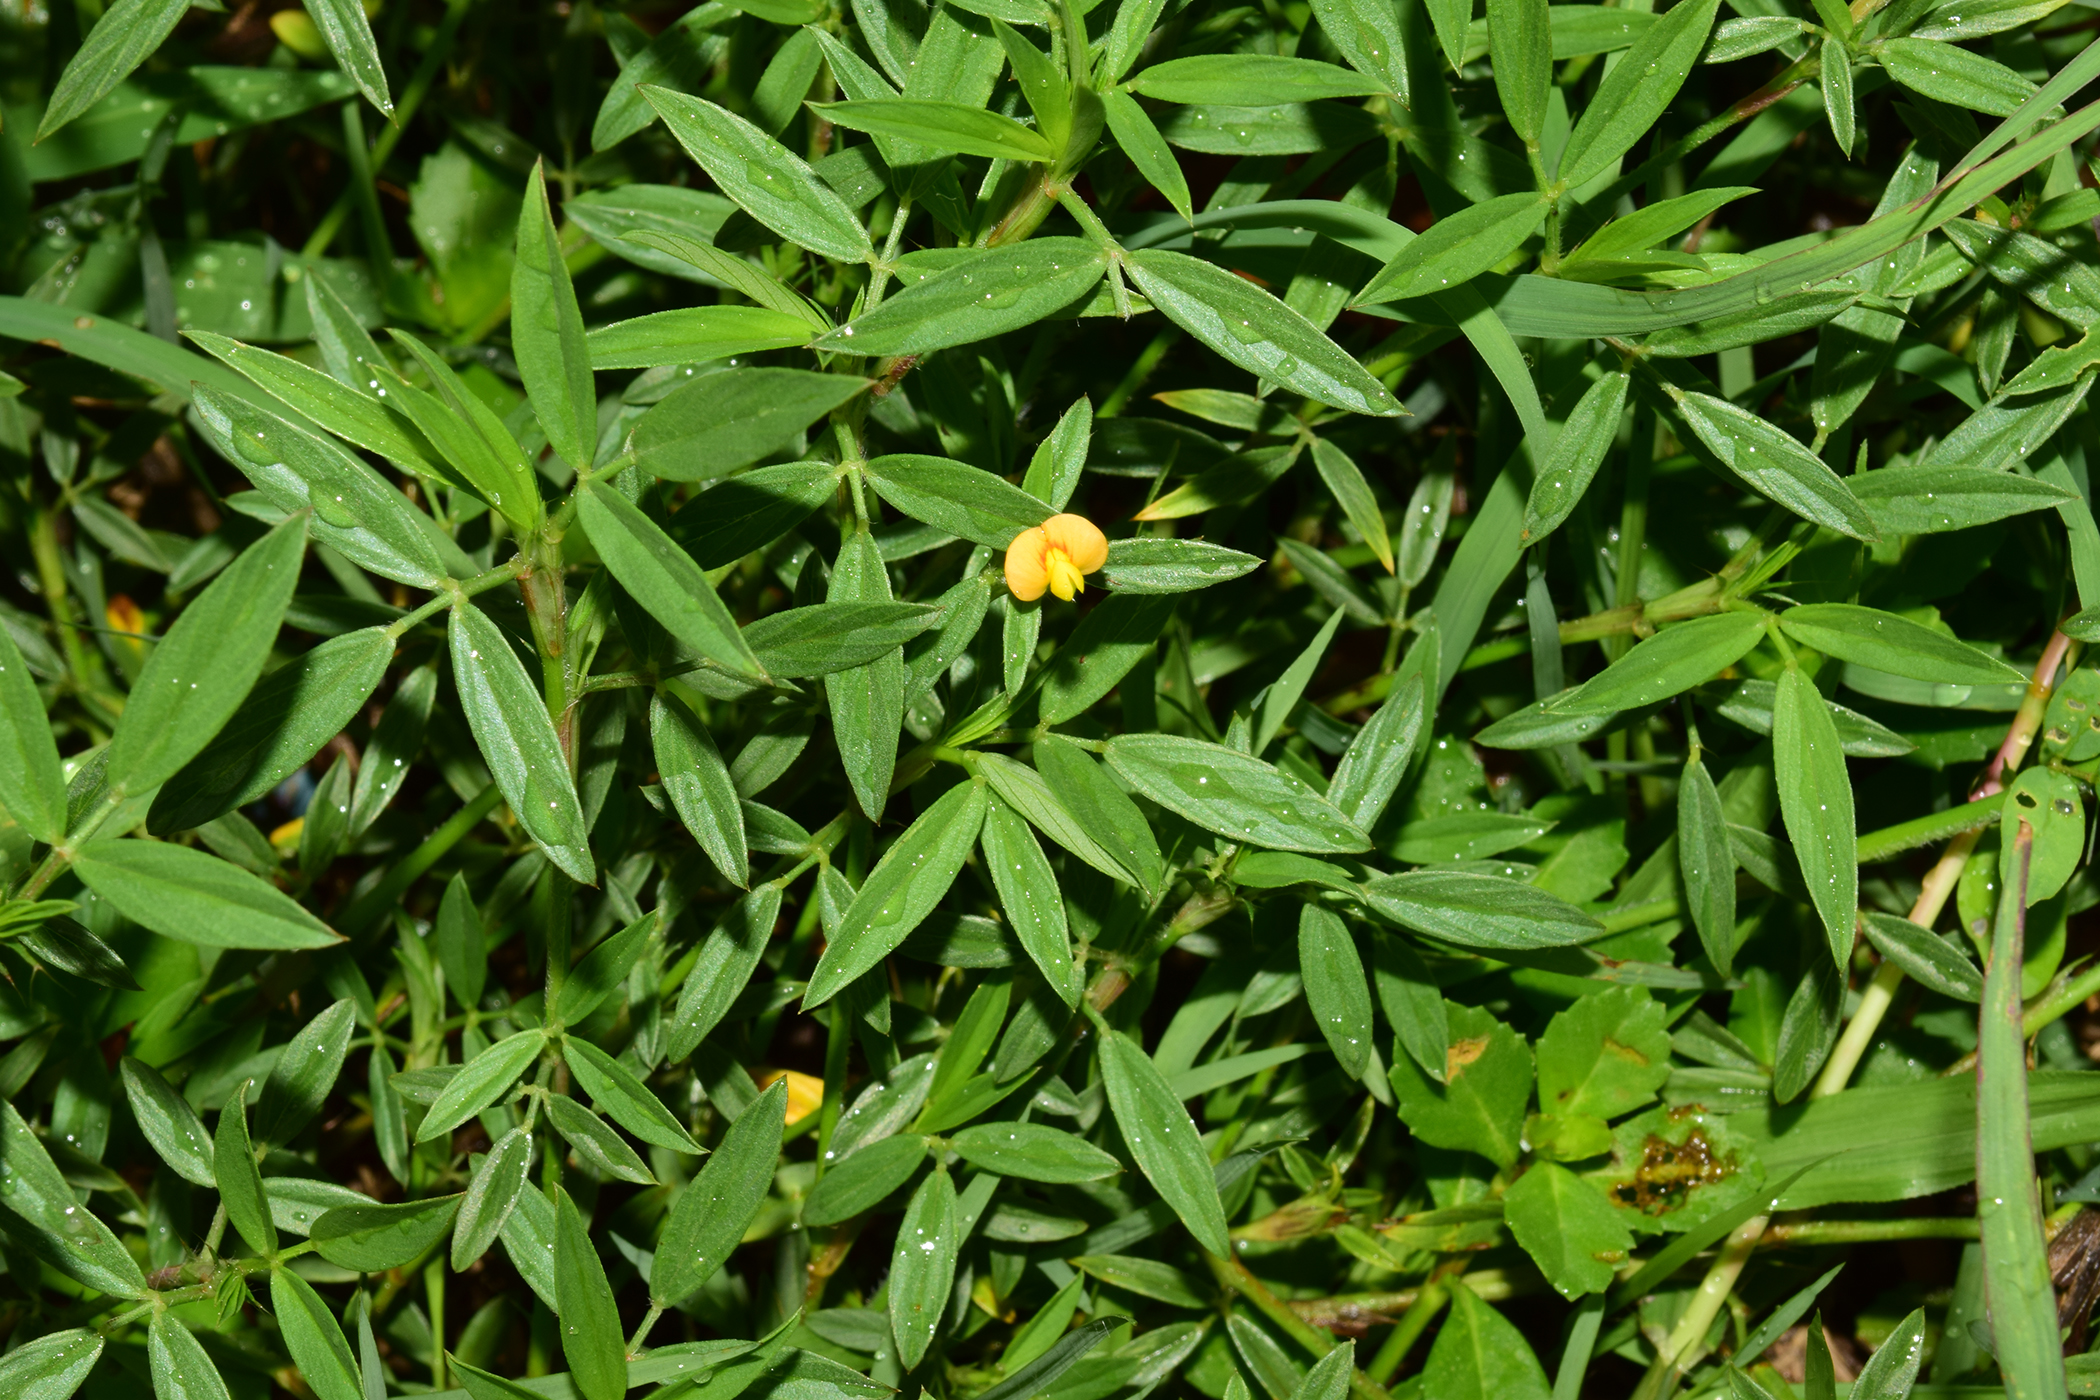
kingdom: Plantae
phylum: Tracheophyta
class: Magnoliopsida
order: Fabales
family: Fabaceae
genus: Stylosanthes
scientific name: Stylosanthes
